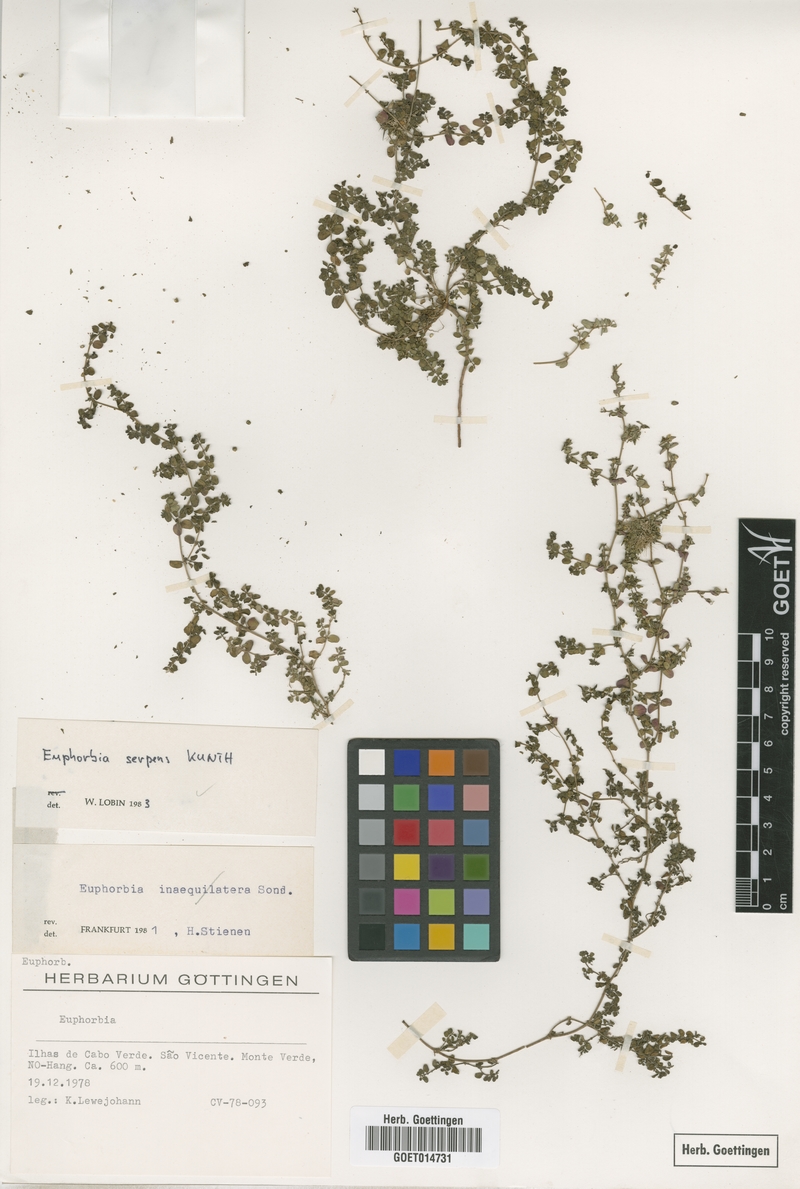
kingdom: Plantae
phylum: Tracheophyta
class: Magnoliopsida
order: Malpighiales
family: Euphorbiaceae
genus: Euphorbia
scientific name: Euphorbia serpens
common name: Matted sandmat
